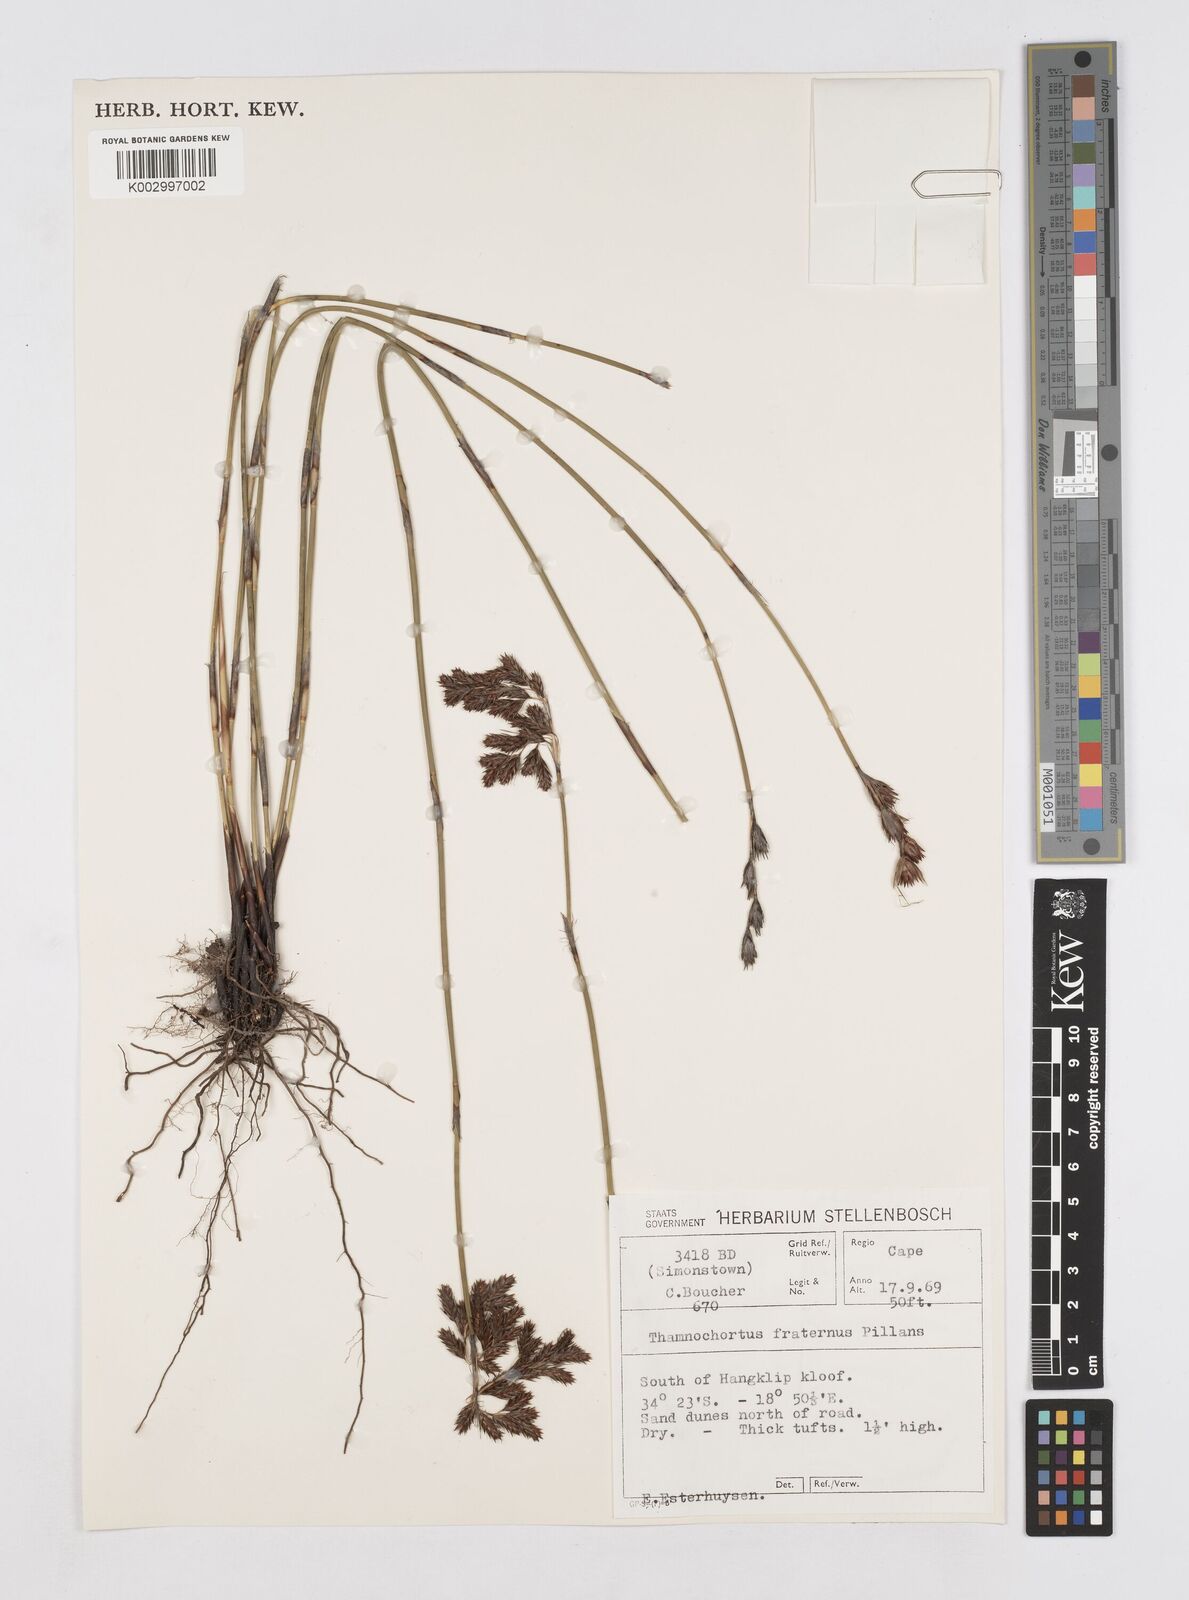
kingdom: Plantae
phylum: Tracheophyta
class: Liliopsida
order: Poales
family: Restionaceae
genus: Thamnochortus
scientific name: Thamnochortus fraternus
